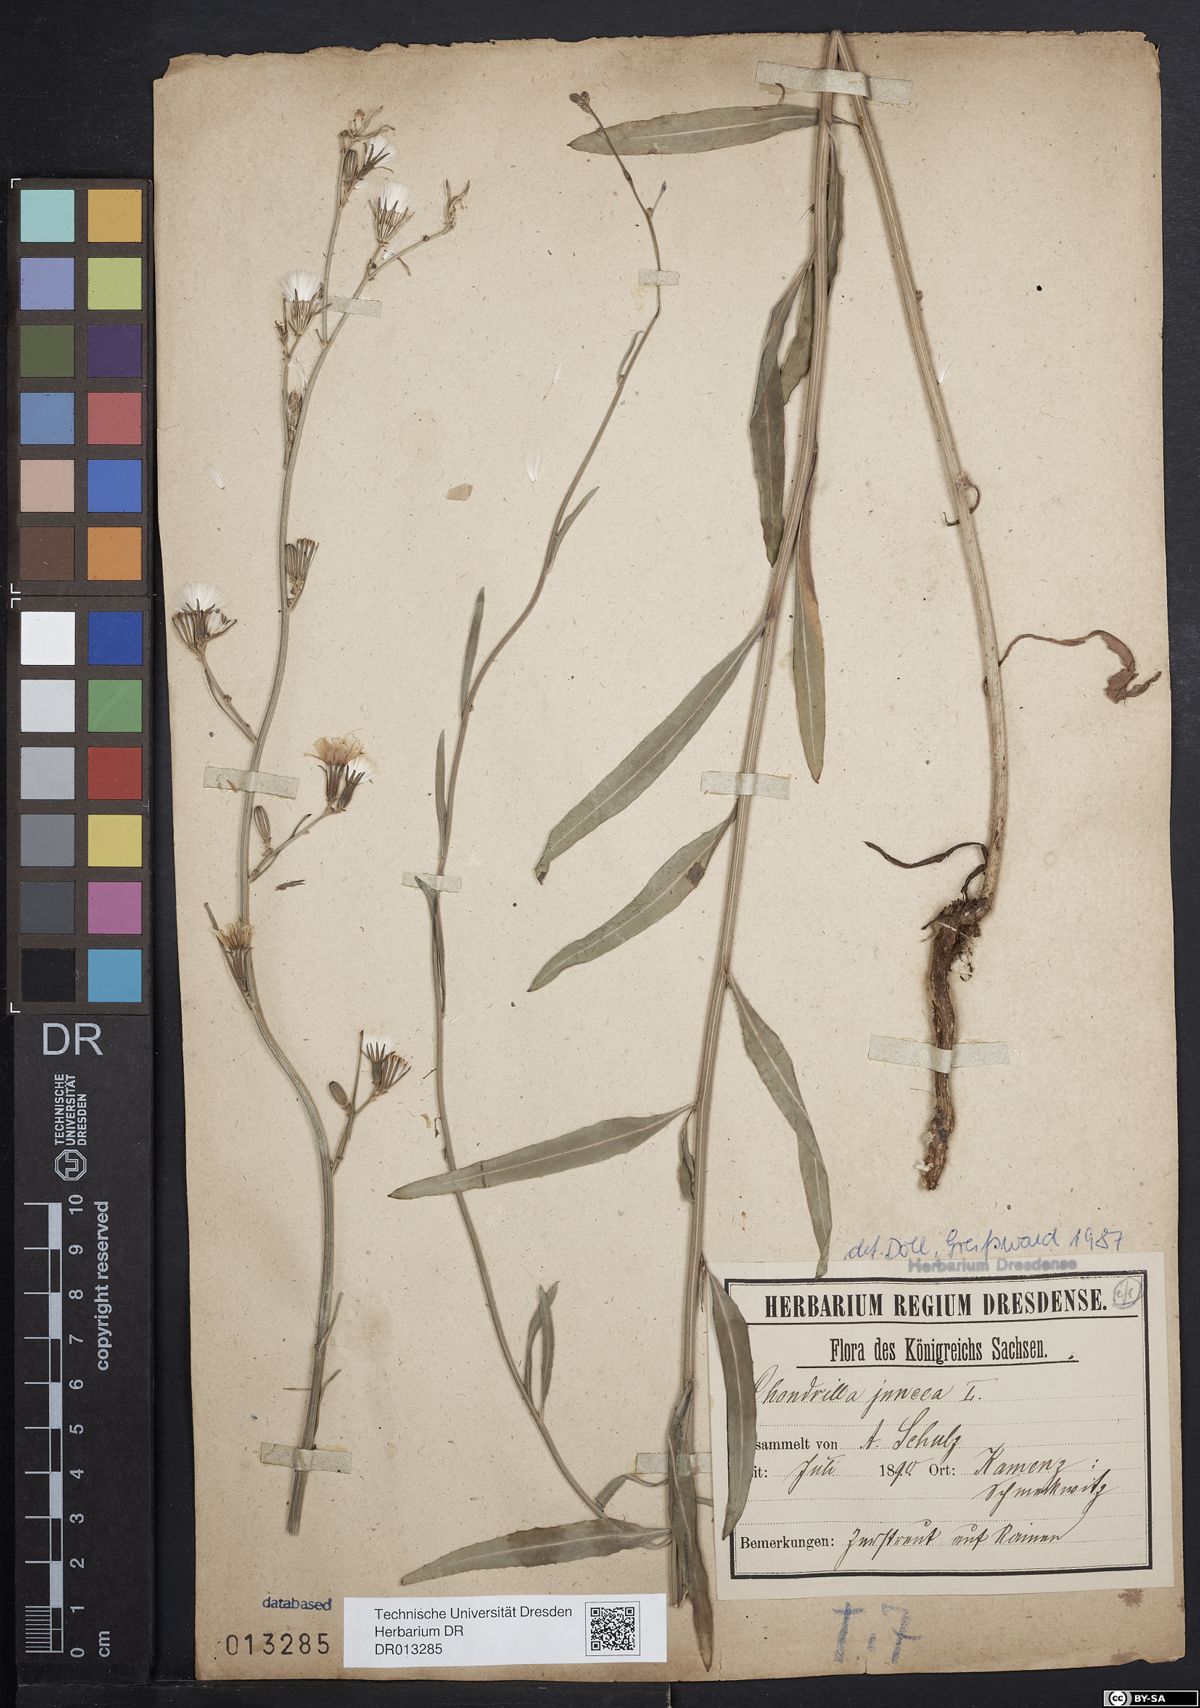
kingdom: Plantae
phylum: Tracheophyta
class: Magnoliopsida
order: Asterales
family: Asteraceae
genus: Chondrilla
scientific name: Chondrilla juncea
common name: Skeleton weed
